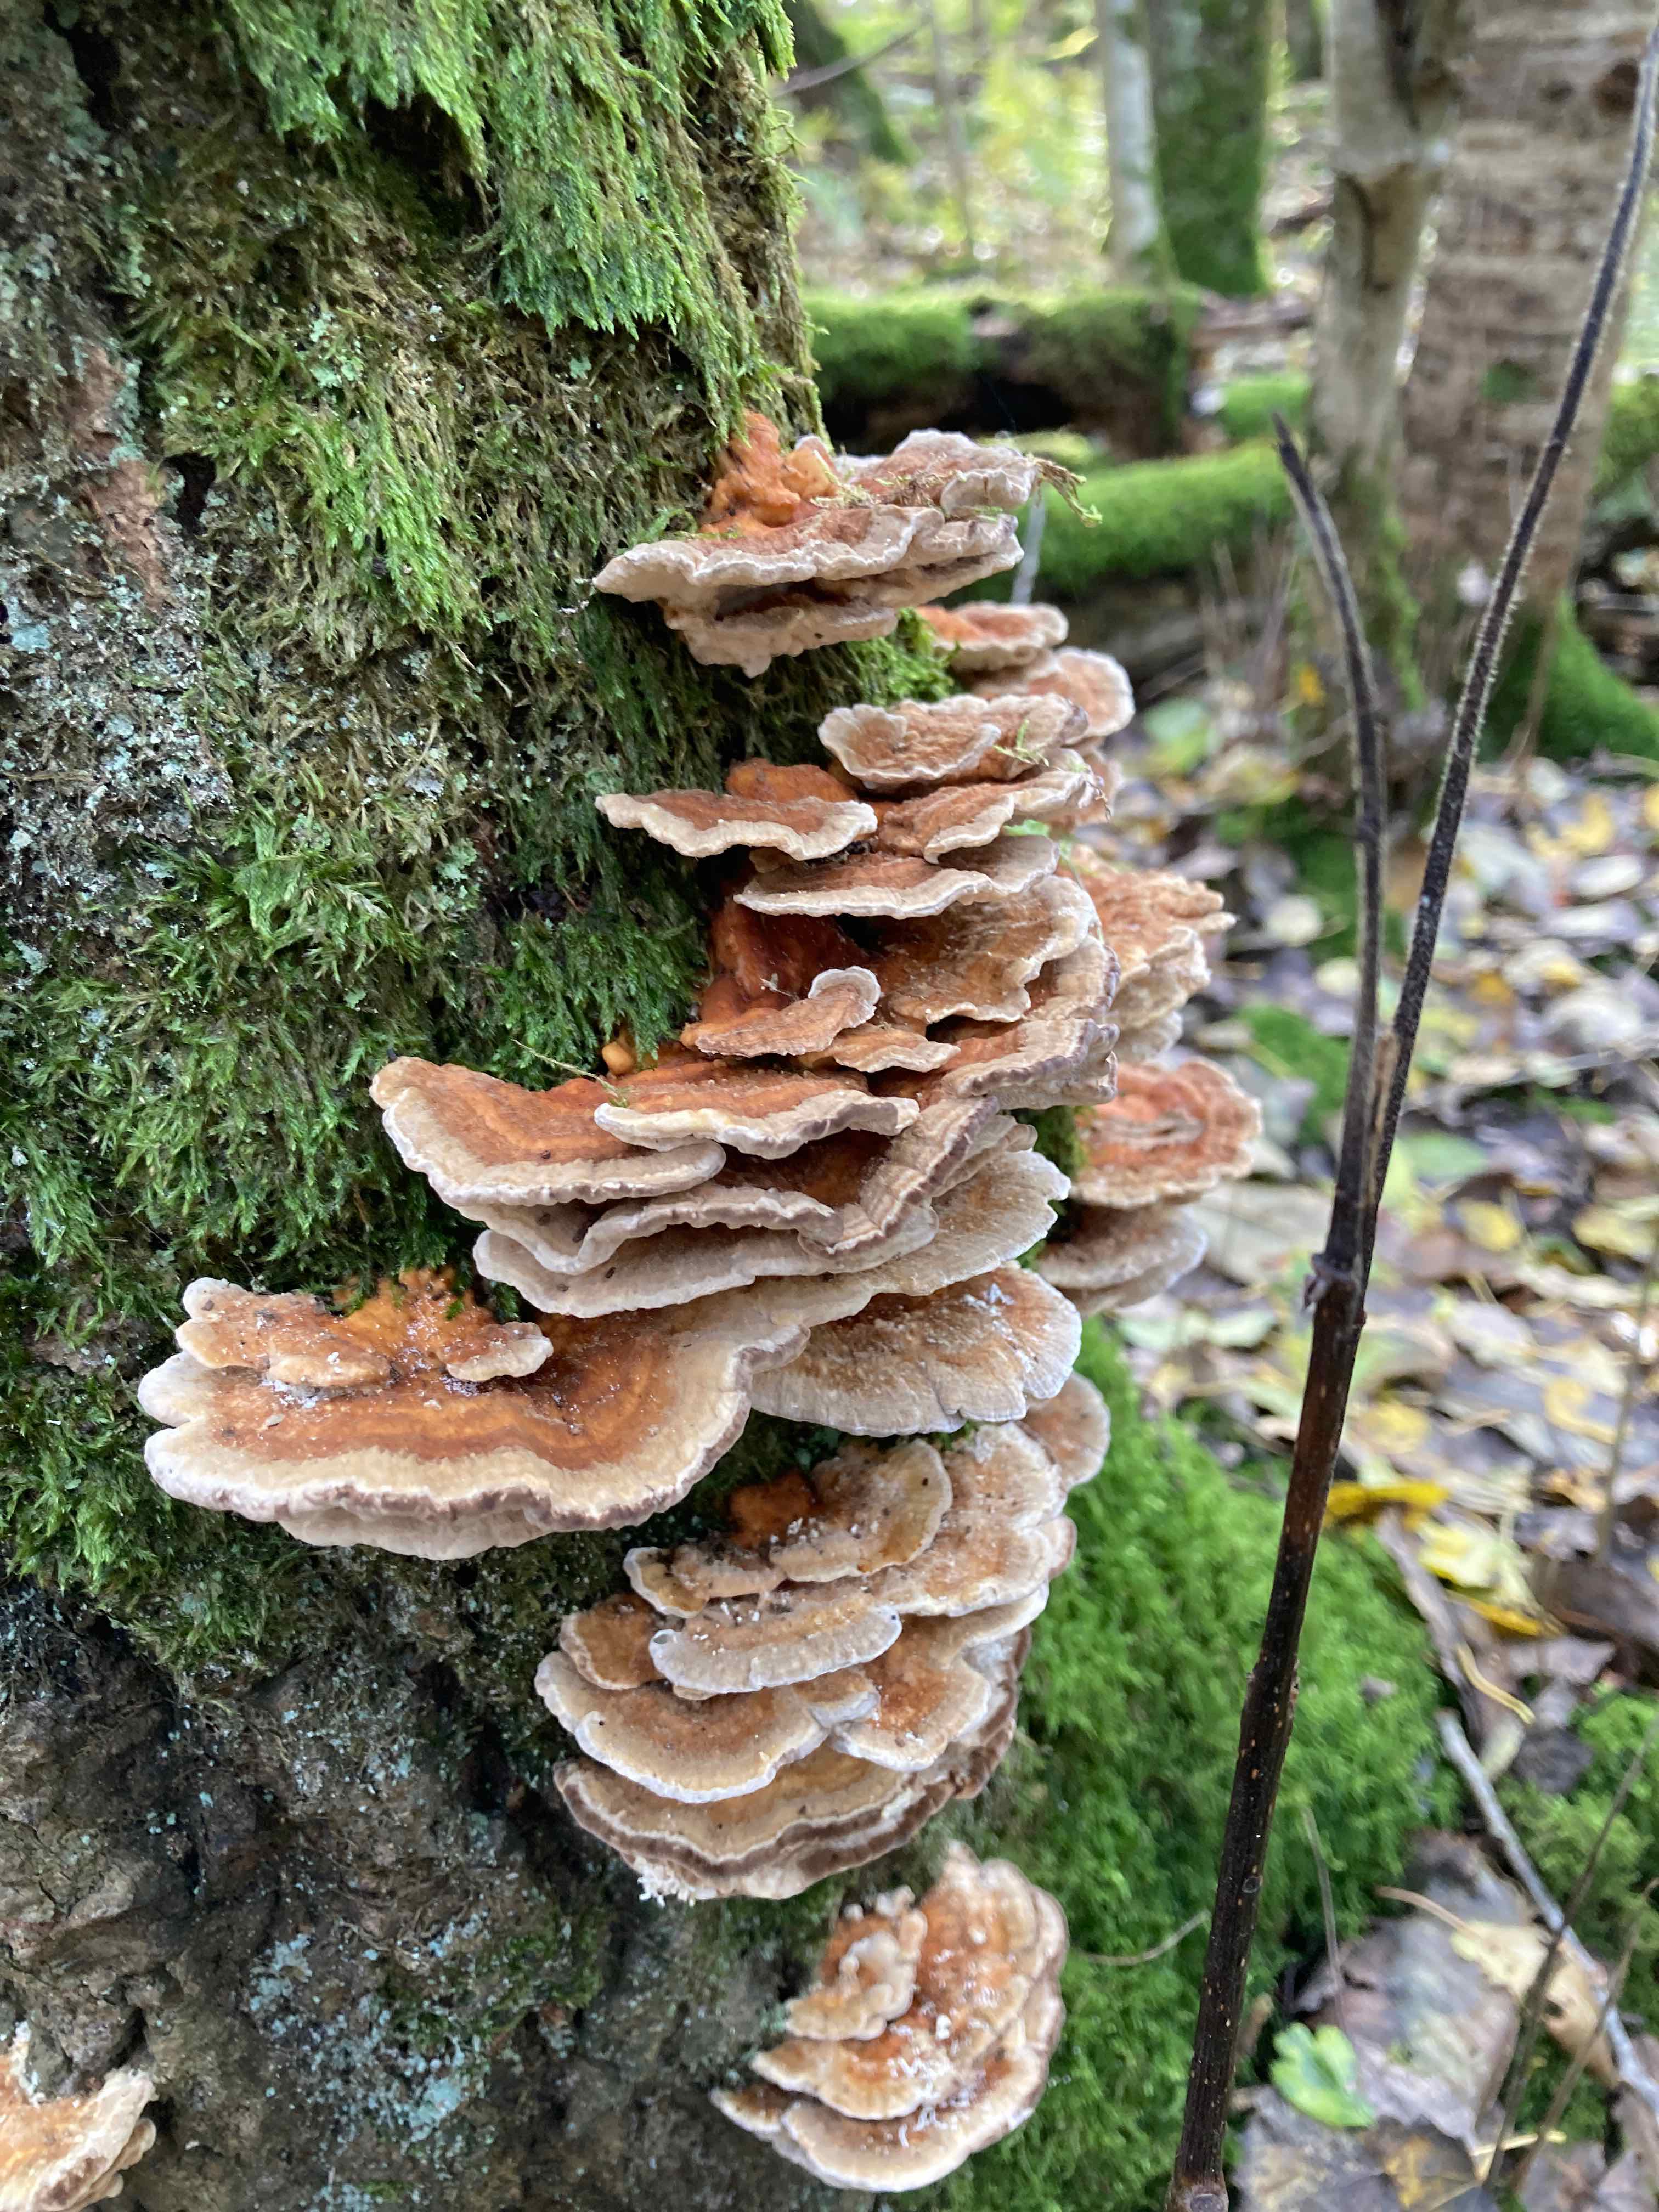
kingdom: Fungi
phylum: Basidiomycota
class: Agaricomycetes
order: Hymenochaetales
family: Hymenochaetaceae
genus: Xanthoporia
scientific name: Xanthoporia radiata
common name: elle-spejlporesvamp
